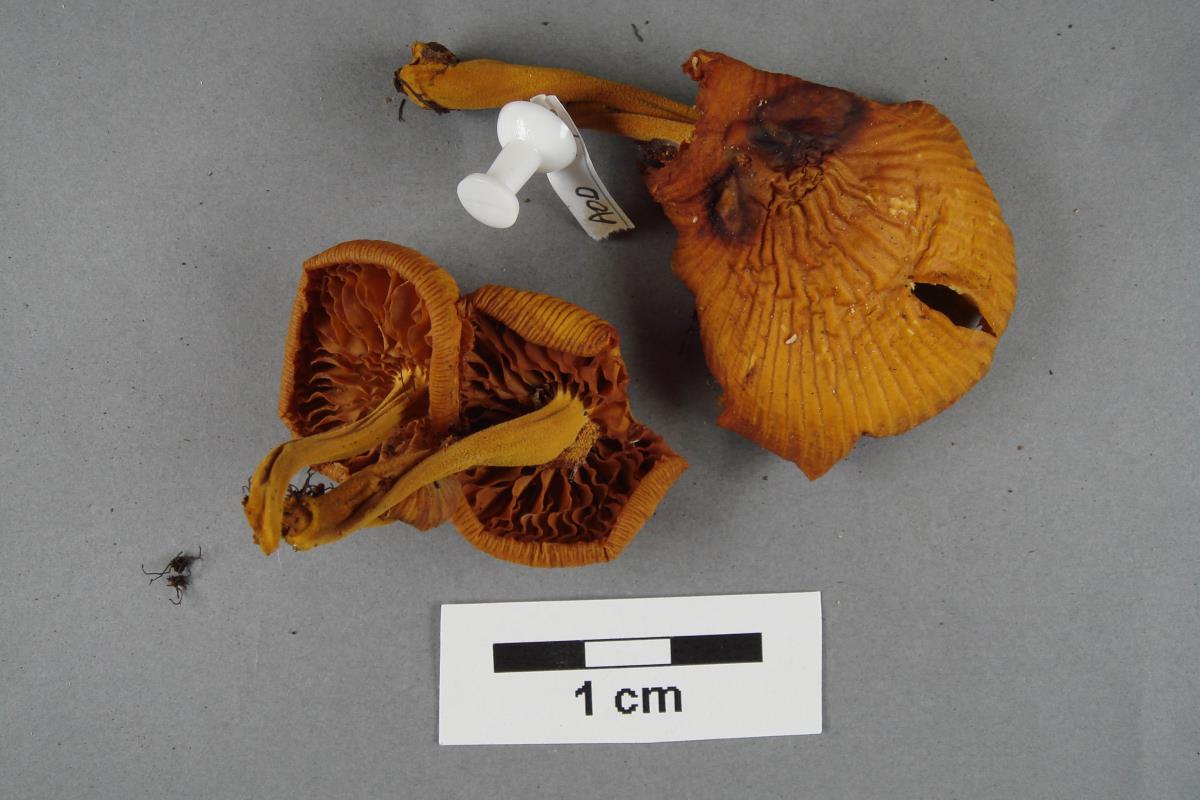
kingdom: Fungi
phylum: Basidiomycota
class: Agaricomycetes
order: Agaricales
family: Hymenogastraceae
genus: Galerina
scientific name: Galerina
